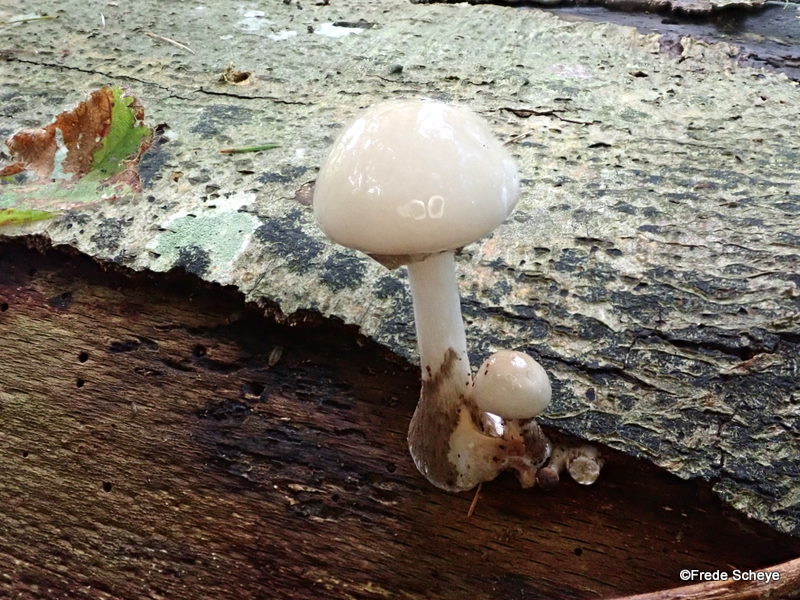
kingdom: Fungi
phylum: Basidiomycota
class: Agaricomycetes
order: Agaricales
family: Physalacriaceae
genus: Mucidula
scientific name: Mucidula mucida
